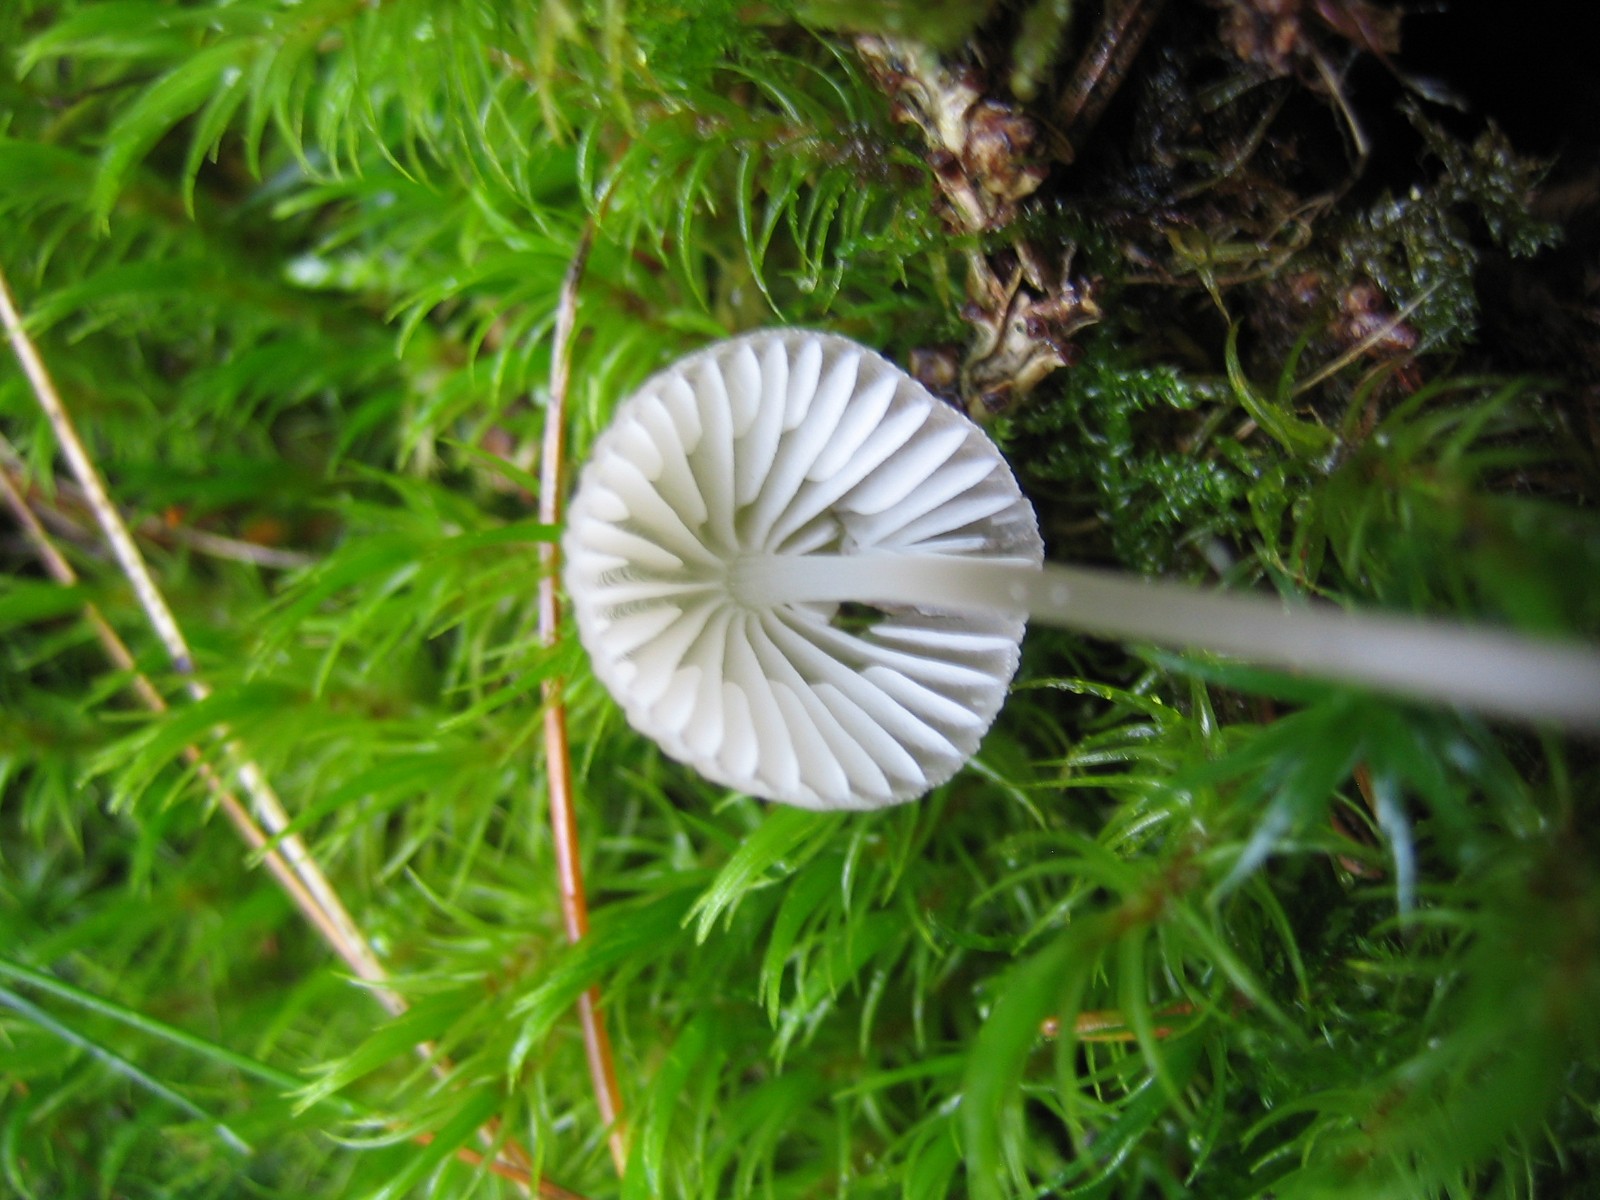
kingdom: Fungi
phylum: Basidiomycota
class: Agaricomycetes
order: Agaricales
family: Mycenaceae
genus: Mycena
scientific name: Mycena
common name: huesvamp
